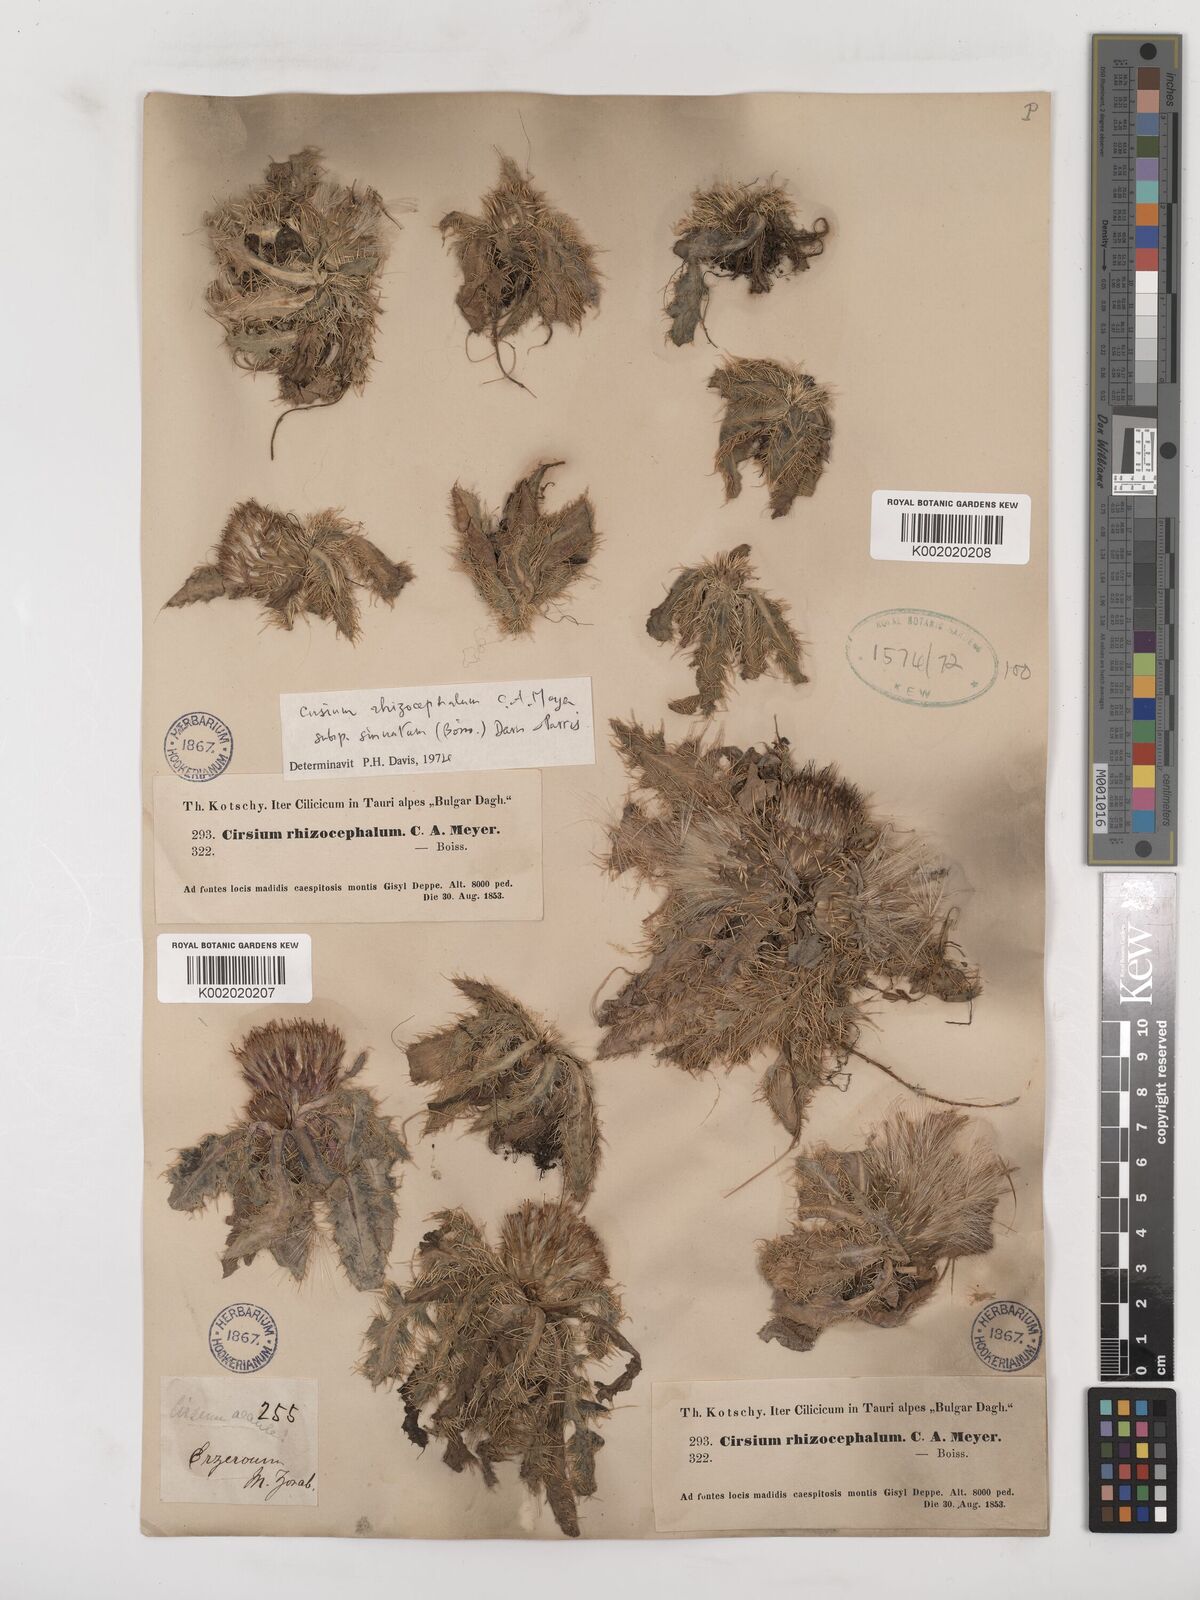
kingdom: Plantae
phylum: Tracheophyta
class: Magnoliopsida
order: Asterales
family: Asteraceae
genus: Cirsium
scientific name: Cirsium acaule
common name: Dwarf thistle
